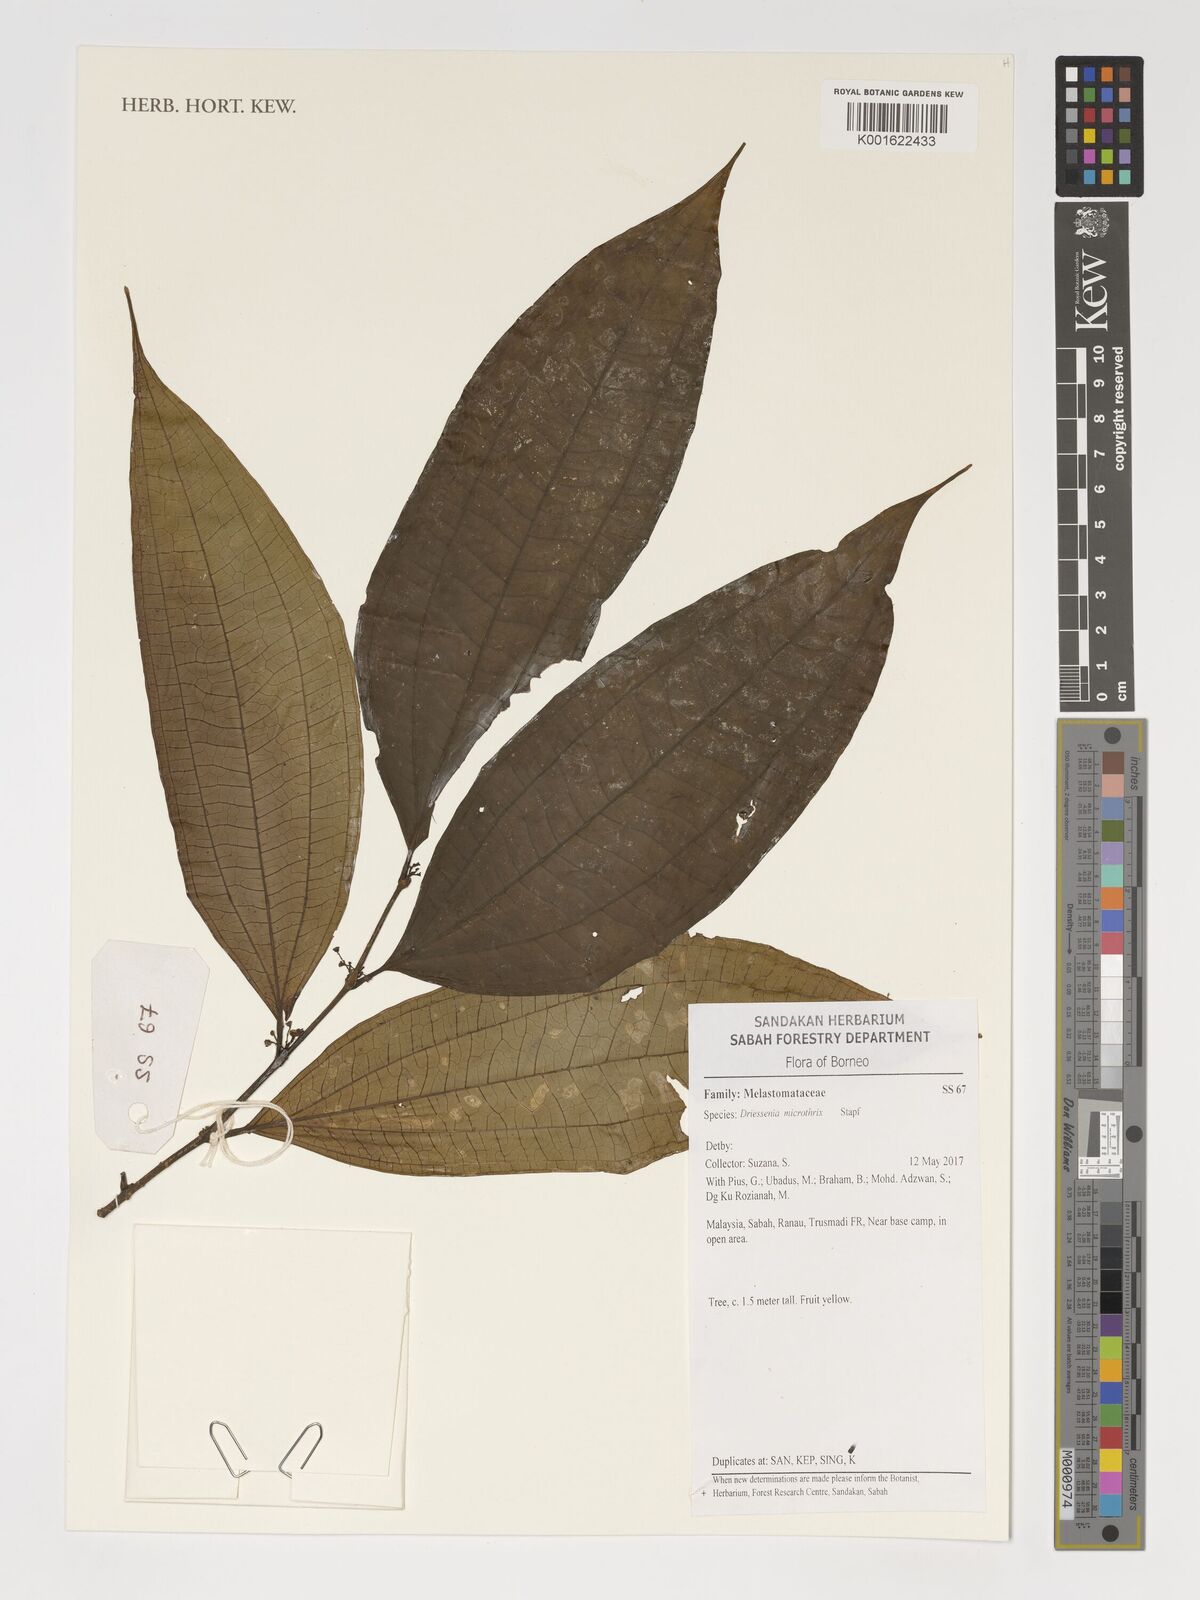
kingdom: Plantae
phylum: Tracheophyta
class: Magnoliopsida
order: Myrtales
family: Melastomataceae
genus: Driessenia
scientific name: Driessenia microthrix
